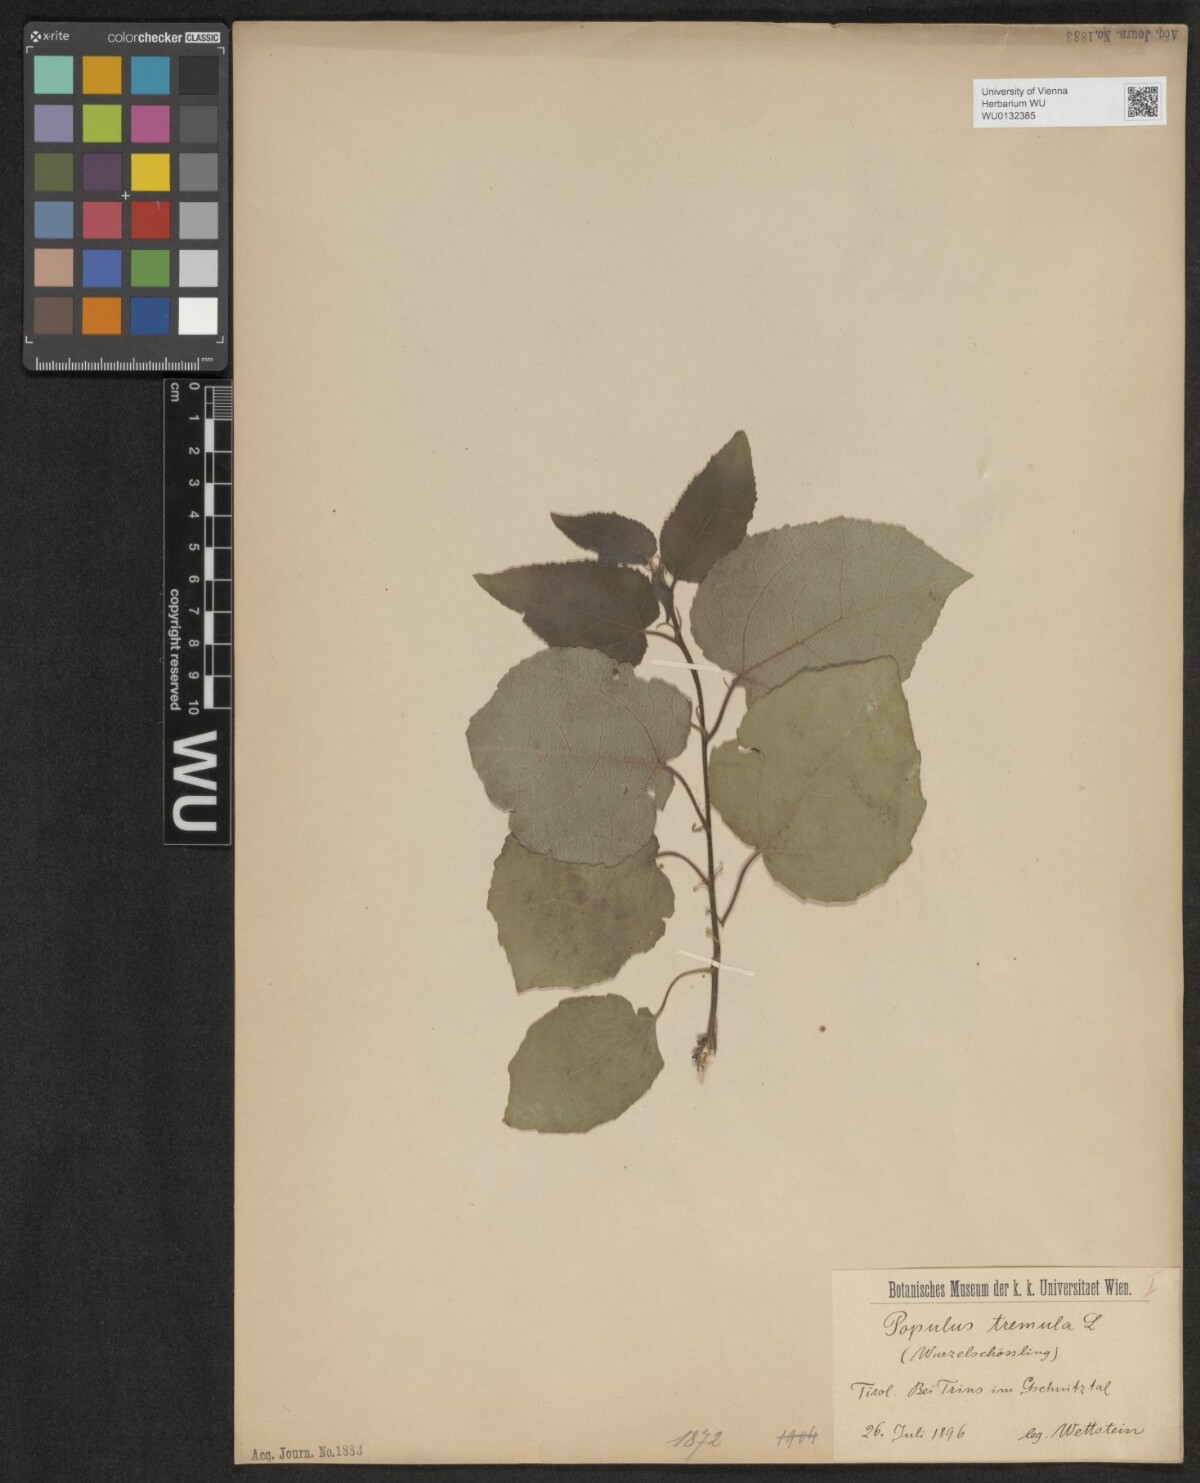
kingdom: Plantae
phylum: Tracheophyta
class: Magnoliopsida
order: Malpighiales
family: Salicaceae
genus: Populus
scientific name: Populus tremula
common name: European aspen
